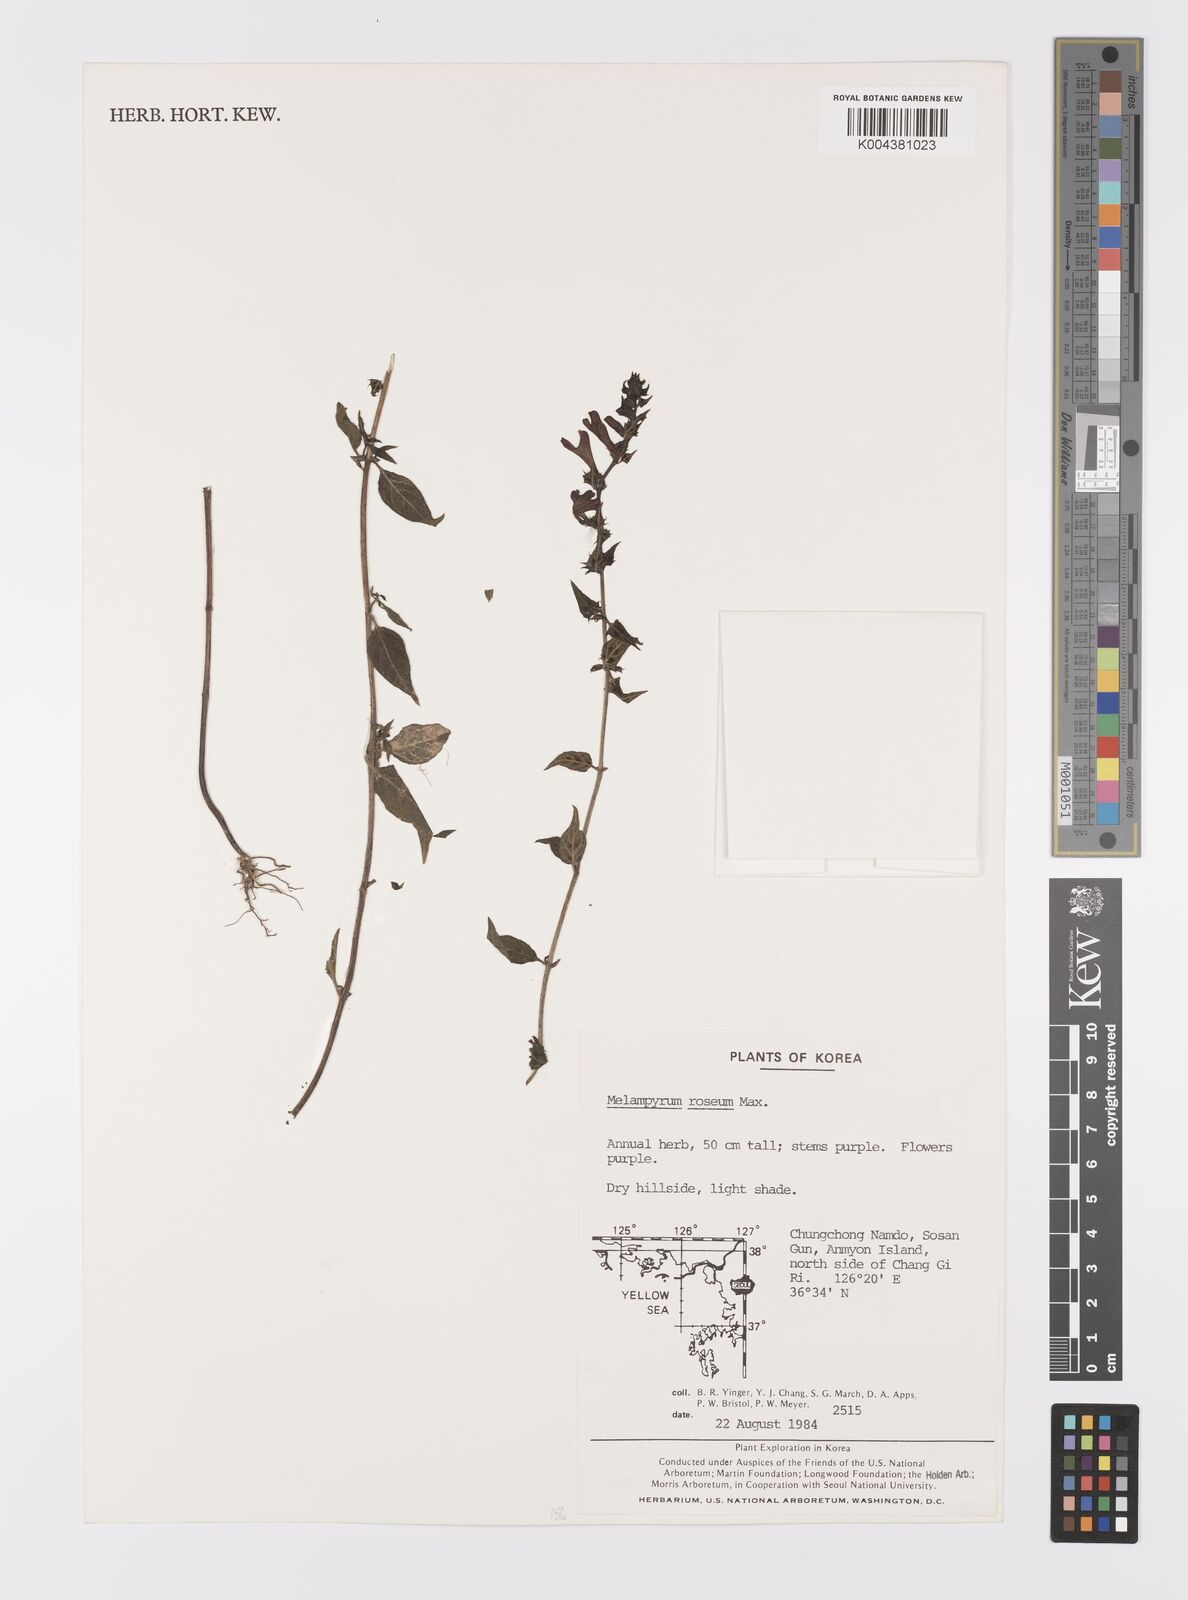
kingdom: Plantae
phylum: Tracheophyta
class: Magnoliopsida
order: Lamiales
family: Orobanchaceae
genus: Melampyrum
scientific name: Melampyrum roseum
